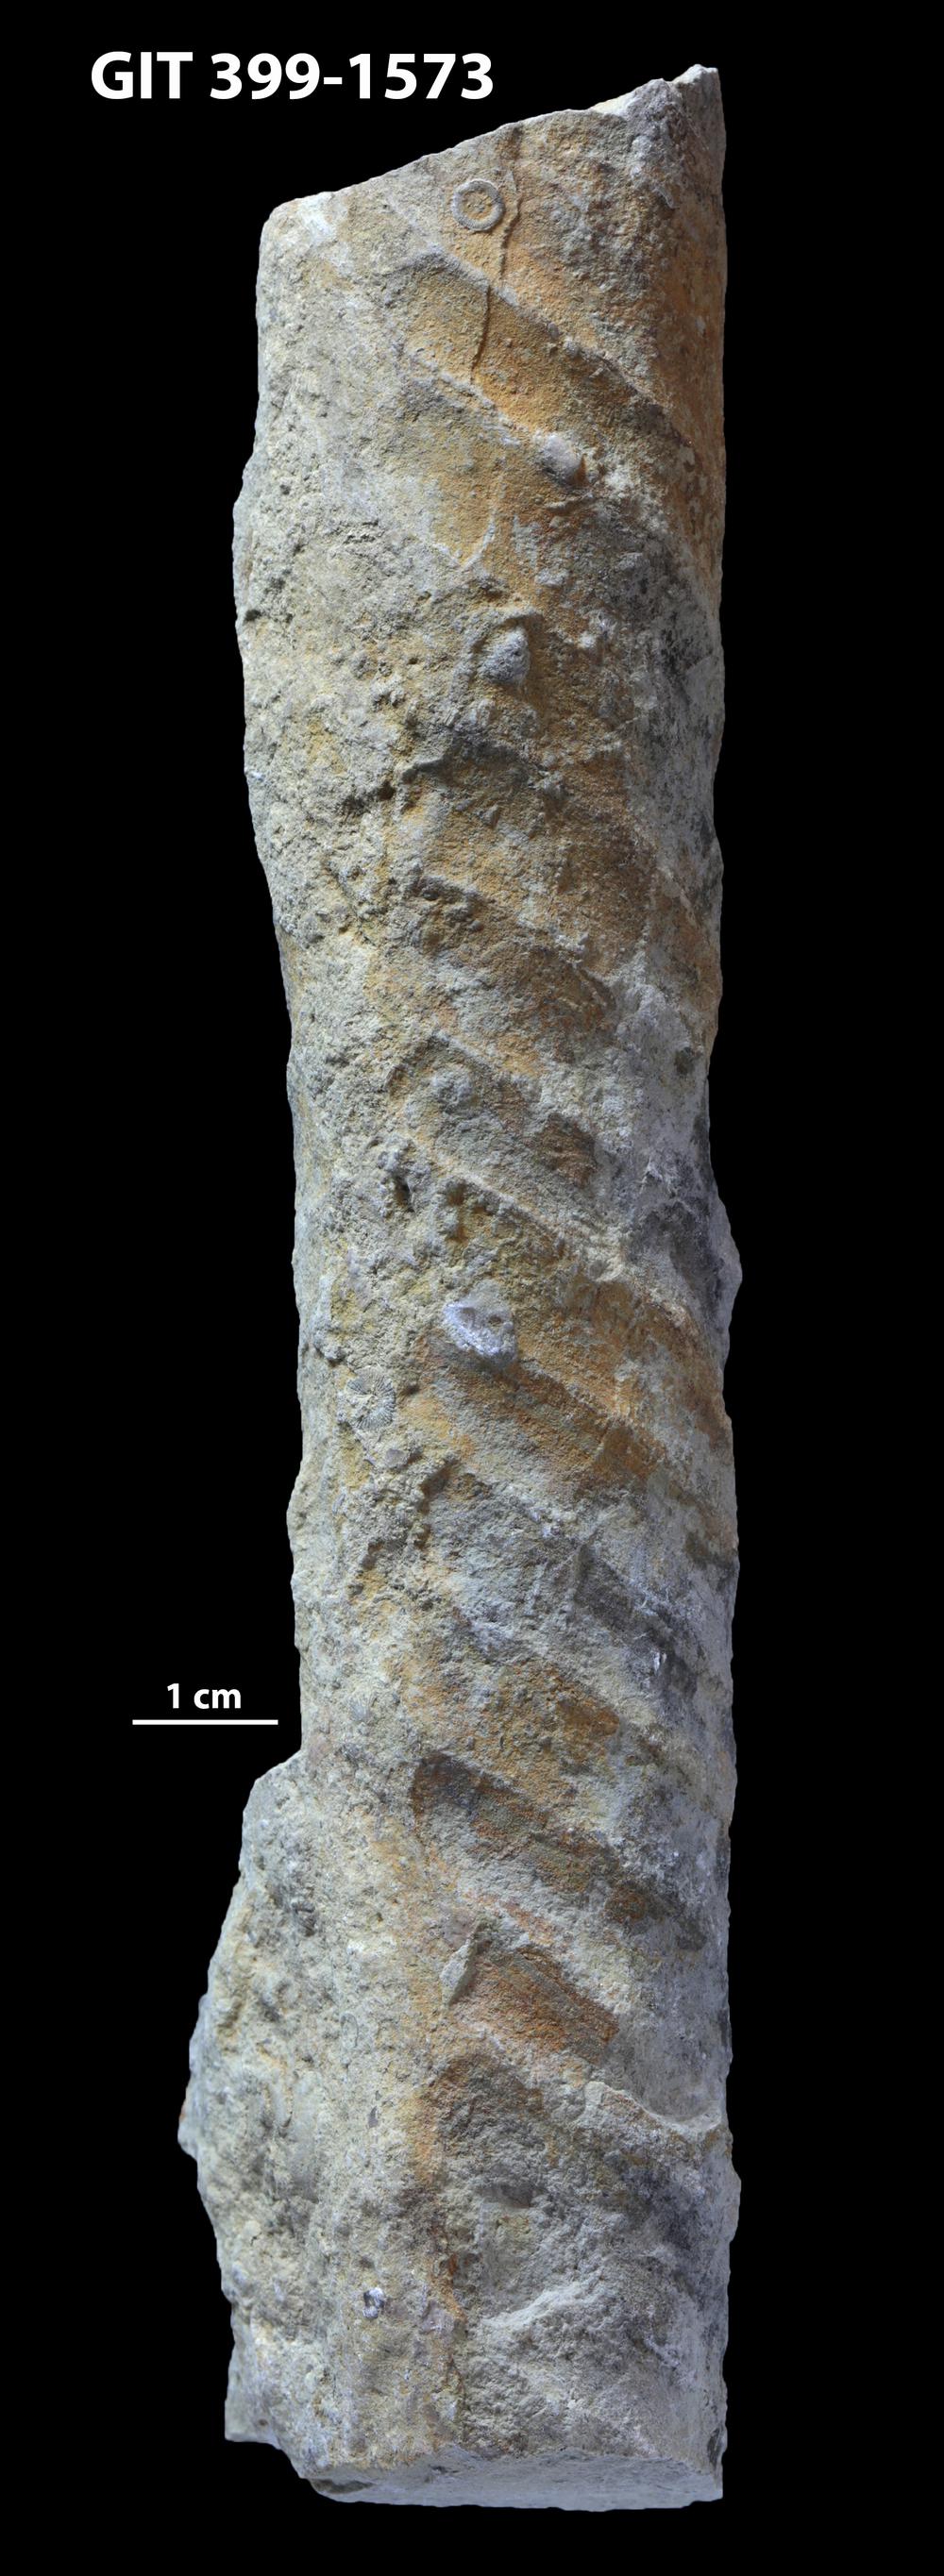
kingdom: Animalia
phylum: Mollusca
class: Cephalopoda
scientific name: Cephalopoda
